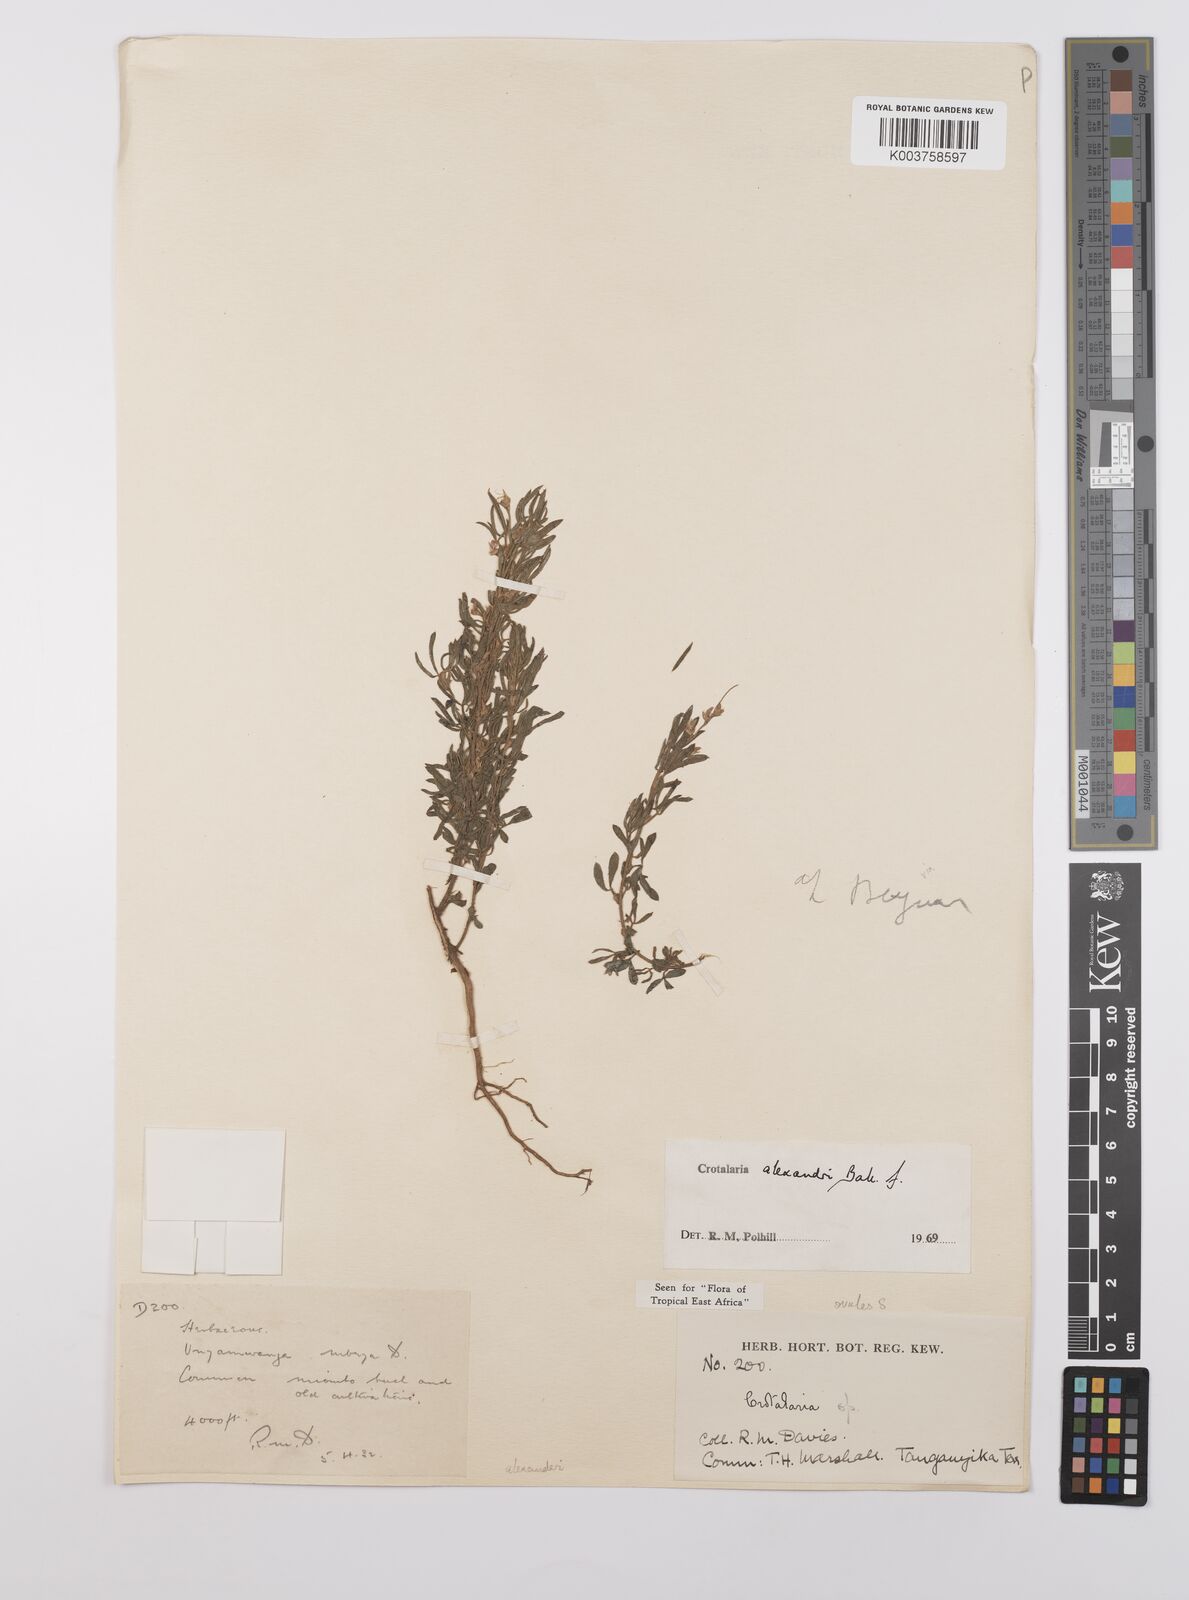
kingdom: Plantae
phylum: Tracheophyta
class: Magnoliopsida
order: Fabales
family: Fabaceae
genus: Crotalaria
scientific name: Crotalaria alexandri
